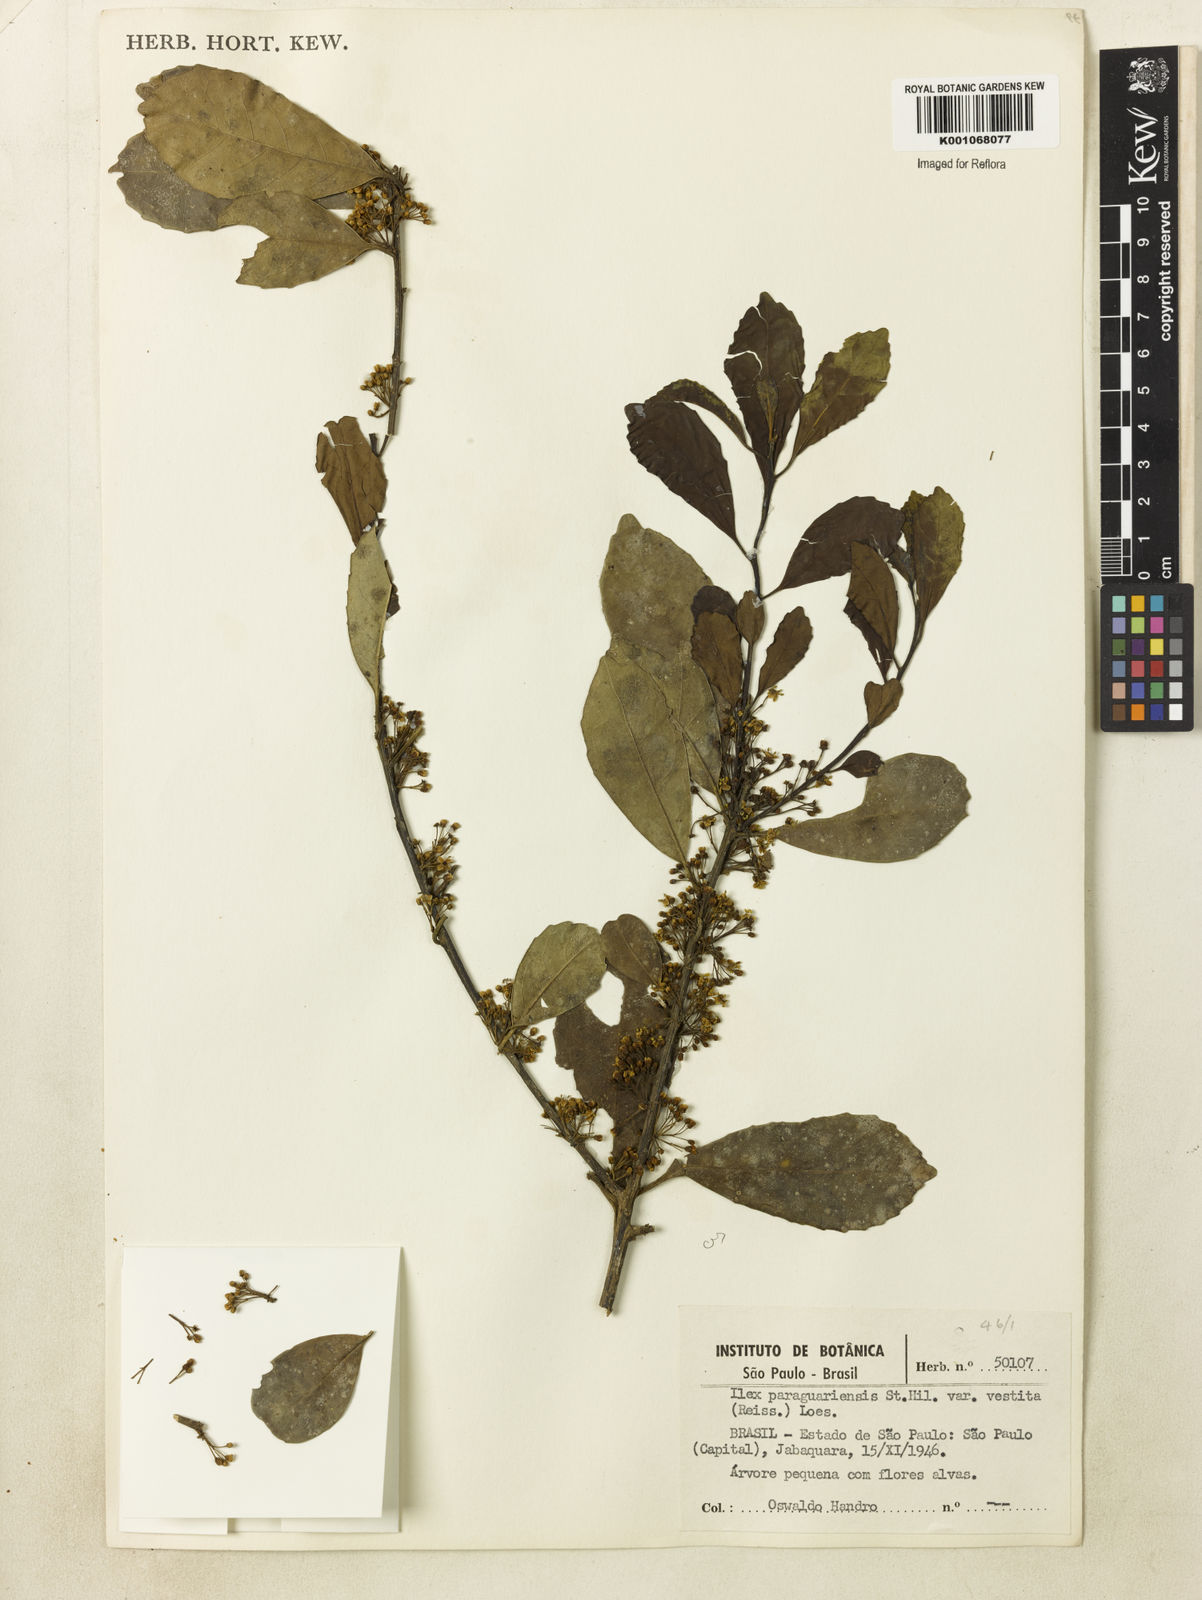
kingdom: Plantae
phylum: Tracheophyta
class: Magnoliopsida
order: Aquifoliales
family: Aquifoliaceae
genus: Ilex
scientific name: Ilex paraguariensis
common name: Paraguay tea
